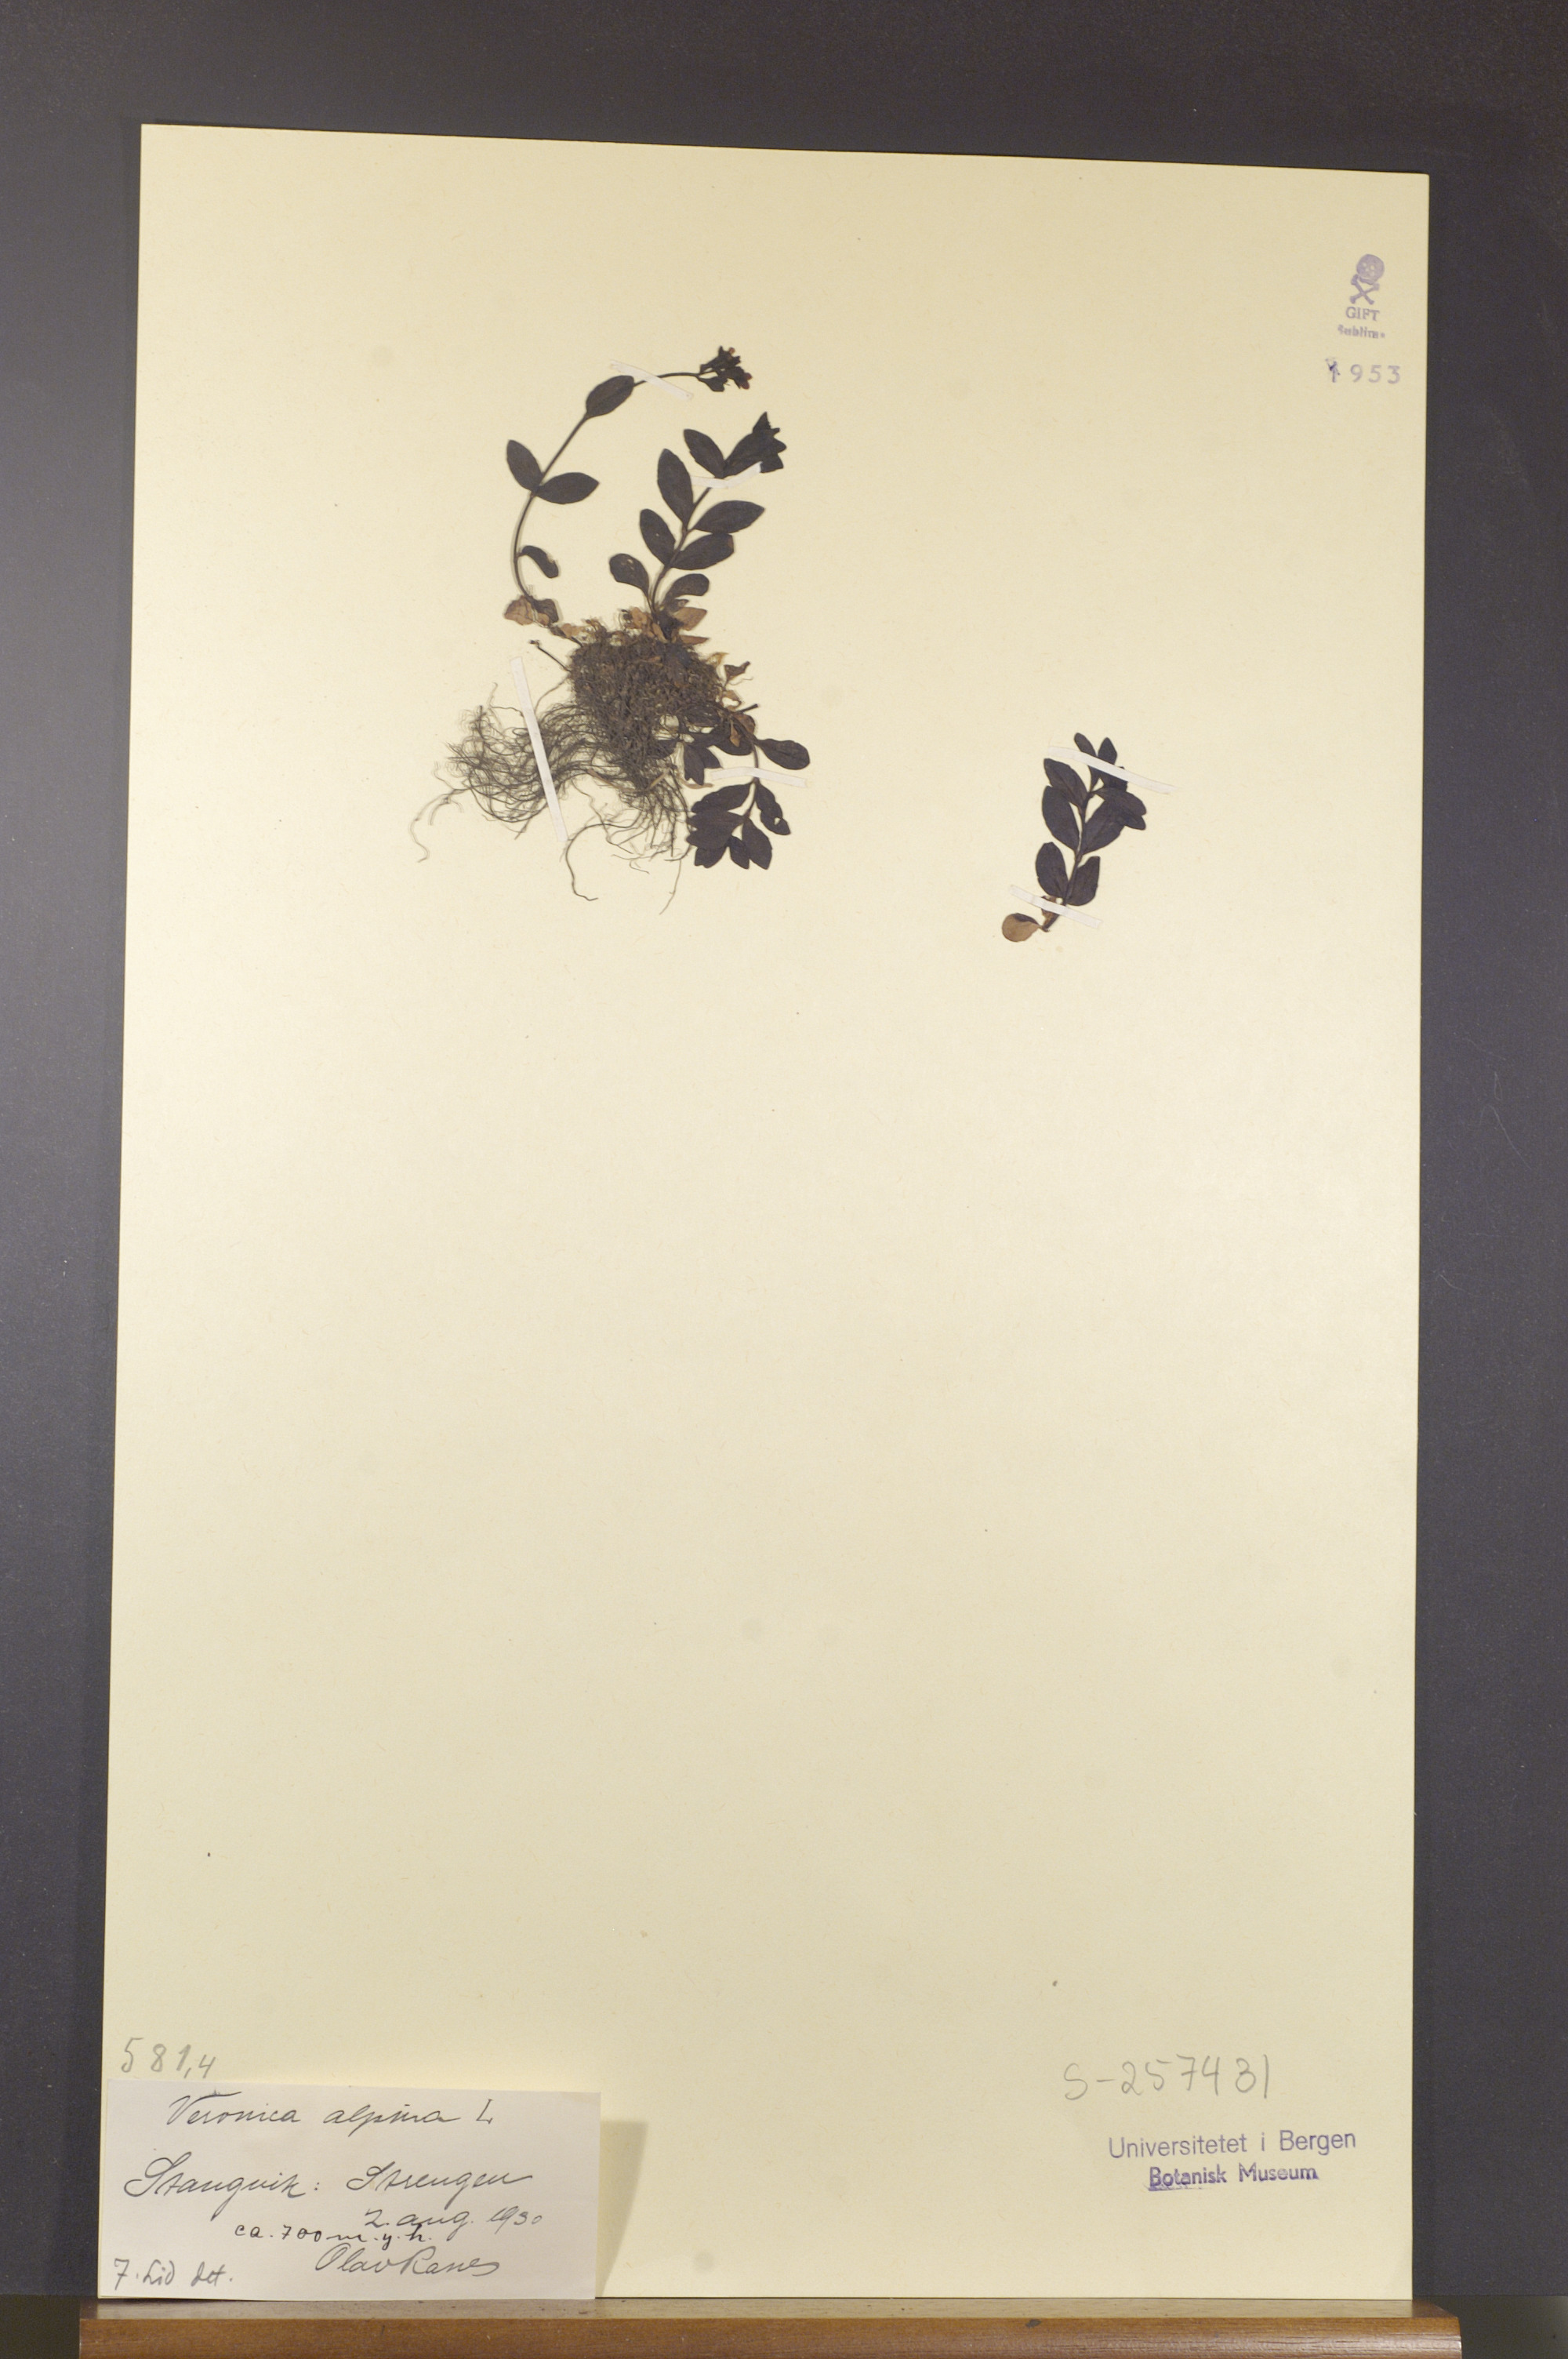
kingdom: Plantae
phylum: Tracheophyta
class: Magnoliopsida
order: Lamiales
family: Plantaginaceae
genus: Veronica
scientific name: Veronica alpina
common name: Alpine speedwell
